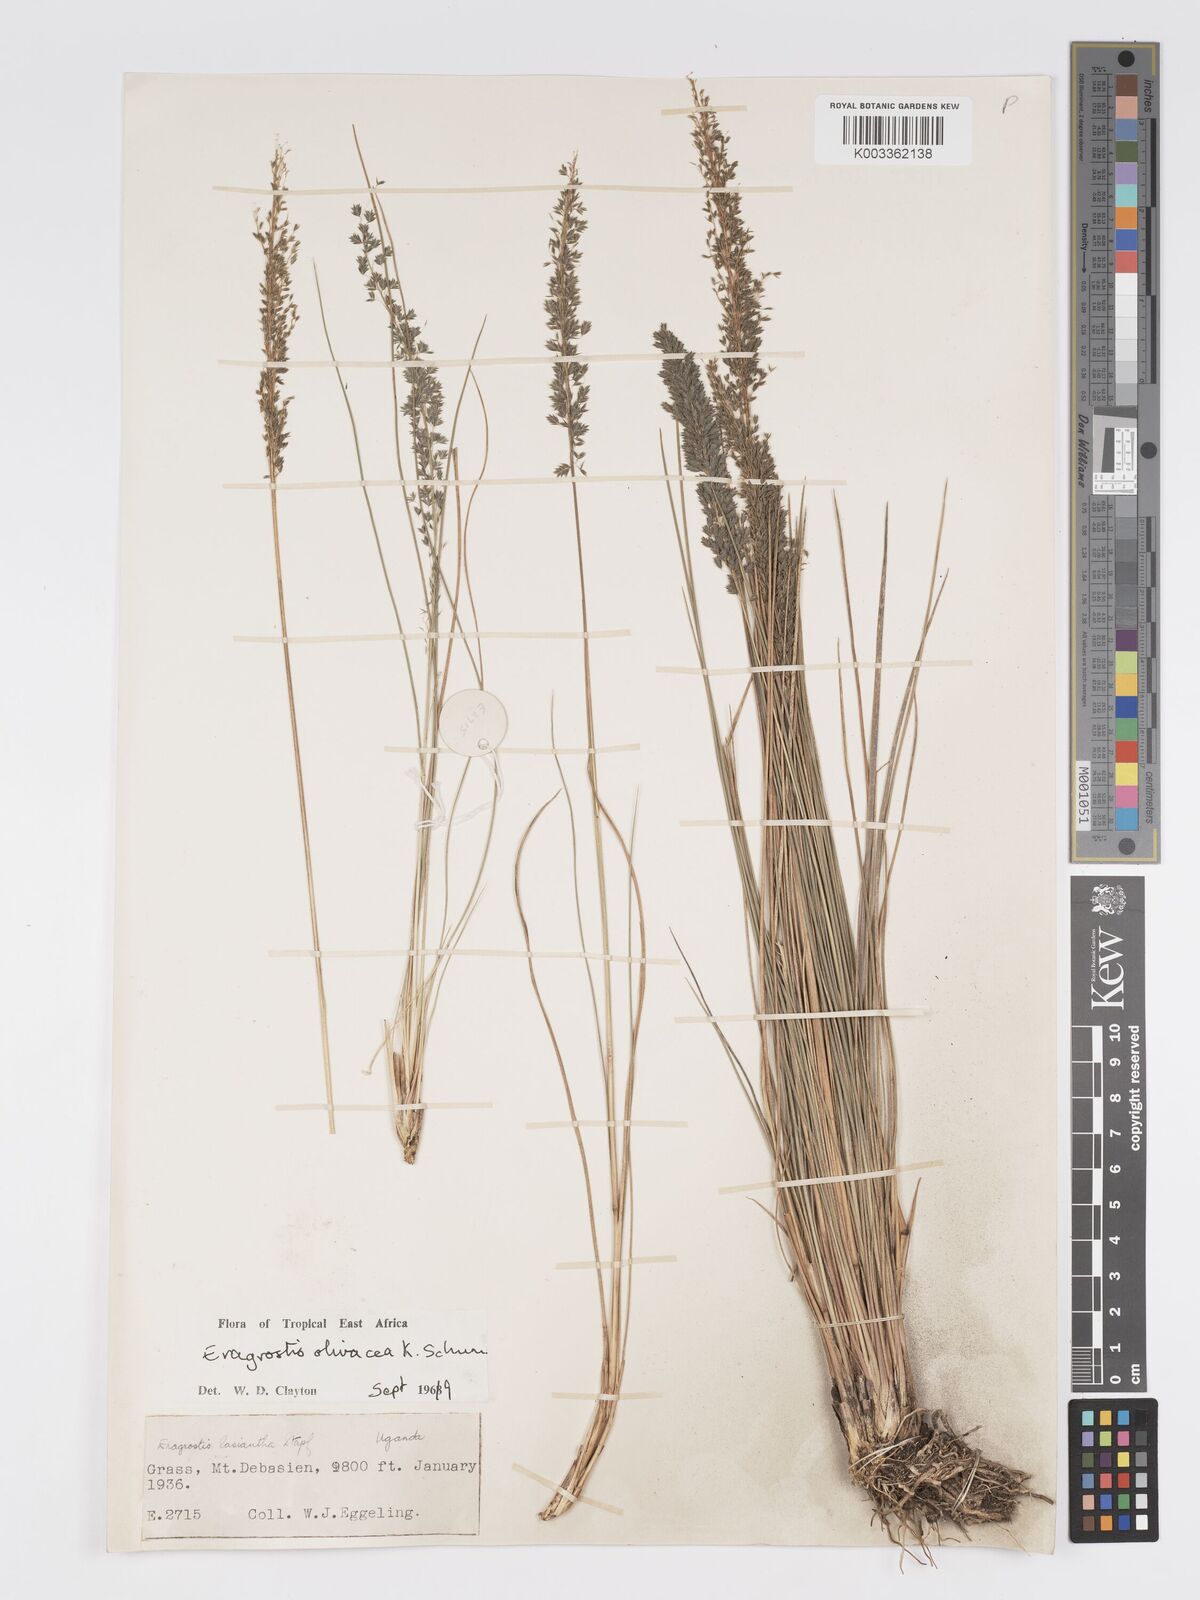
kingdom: Plantae
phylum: Tracheophyta
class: Liliopsida
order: Poales
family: Poaceae
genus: Eragrostis
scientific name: Eragrostis olivacea
